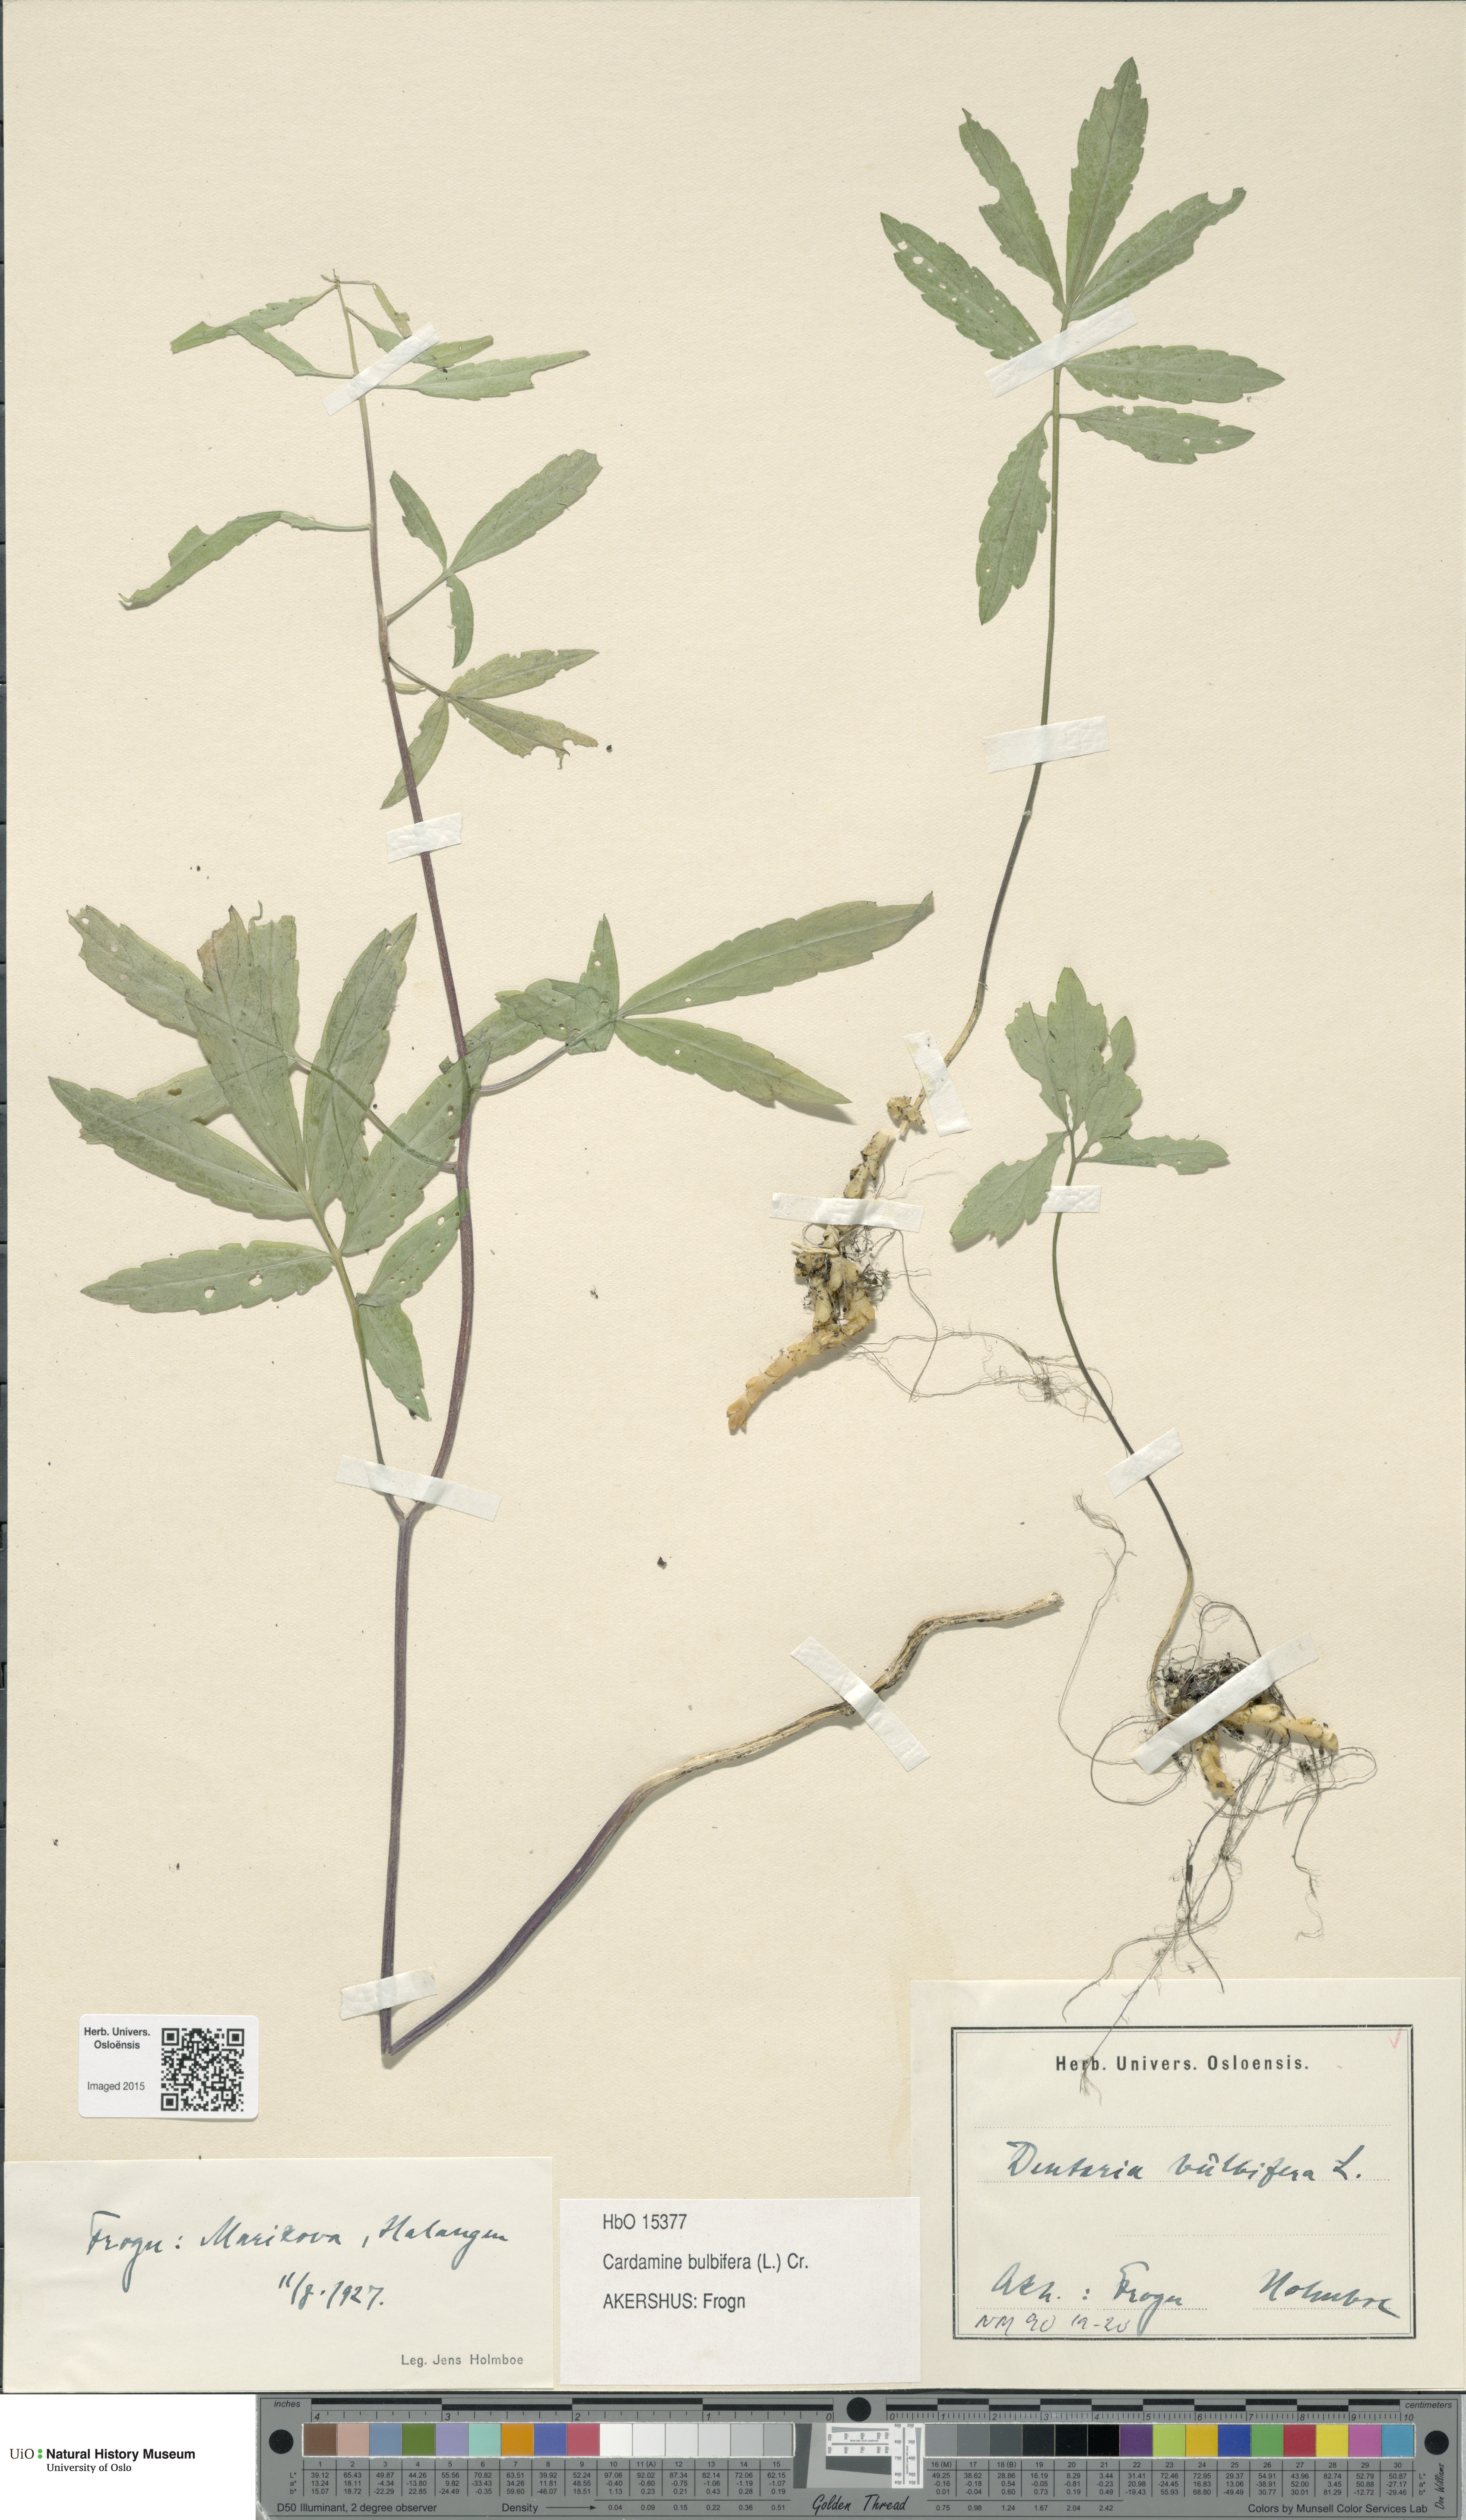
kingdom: Plantae
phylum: Tracheophyta
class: Magnoliopsida
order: Brassicales
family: Brassicaceae
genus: Cardamine
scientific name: Cardamine bulbifera
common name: Coralroot bittercress
